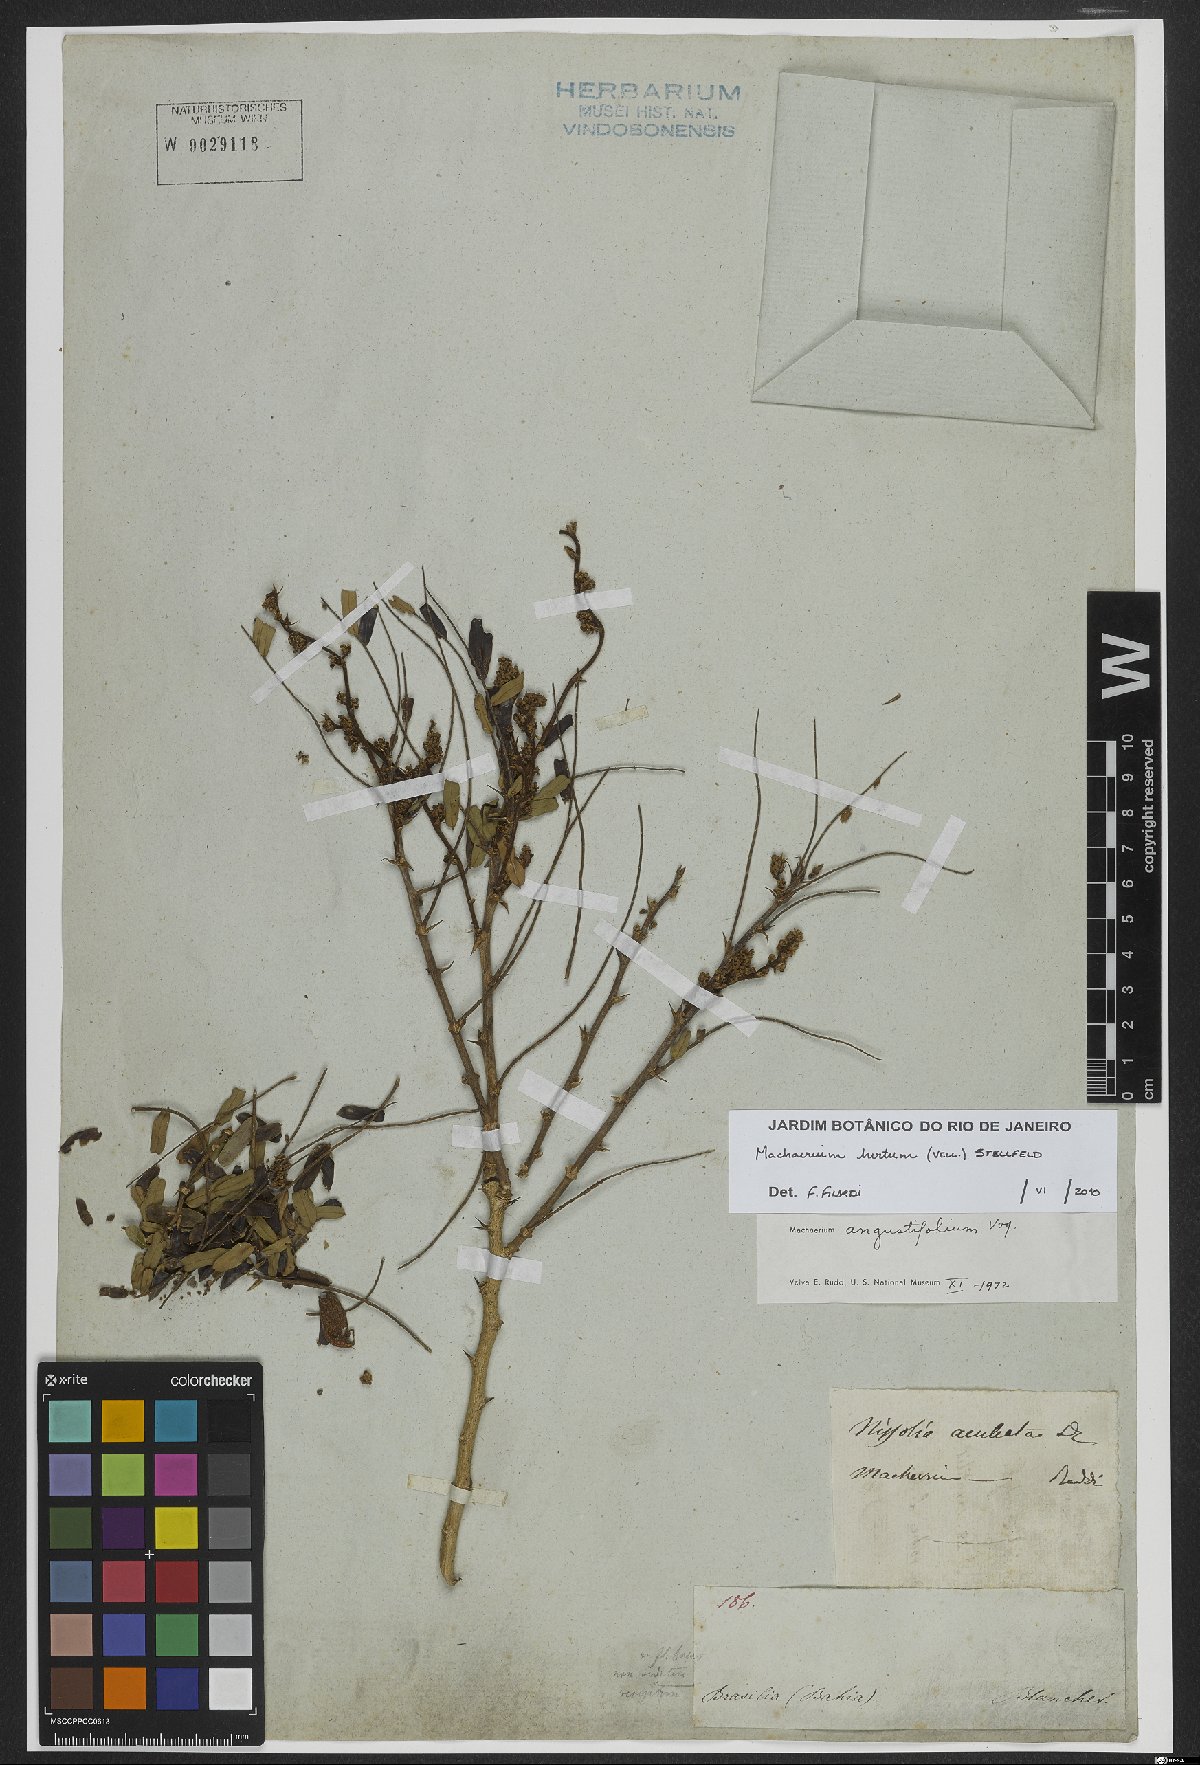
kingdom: Plantae
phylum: Tracheophyta
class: Magnoliopsida
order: Fabales
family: Fabaceae
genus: Machaerium
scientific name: Machaerium hirtum
